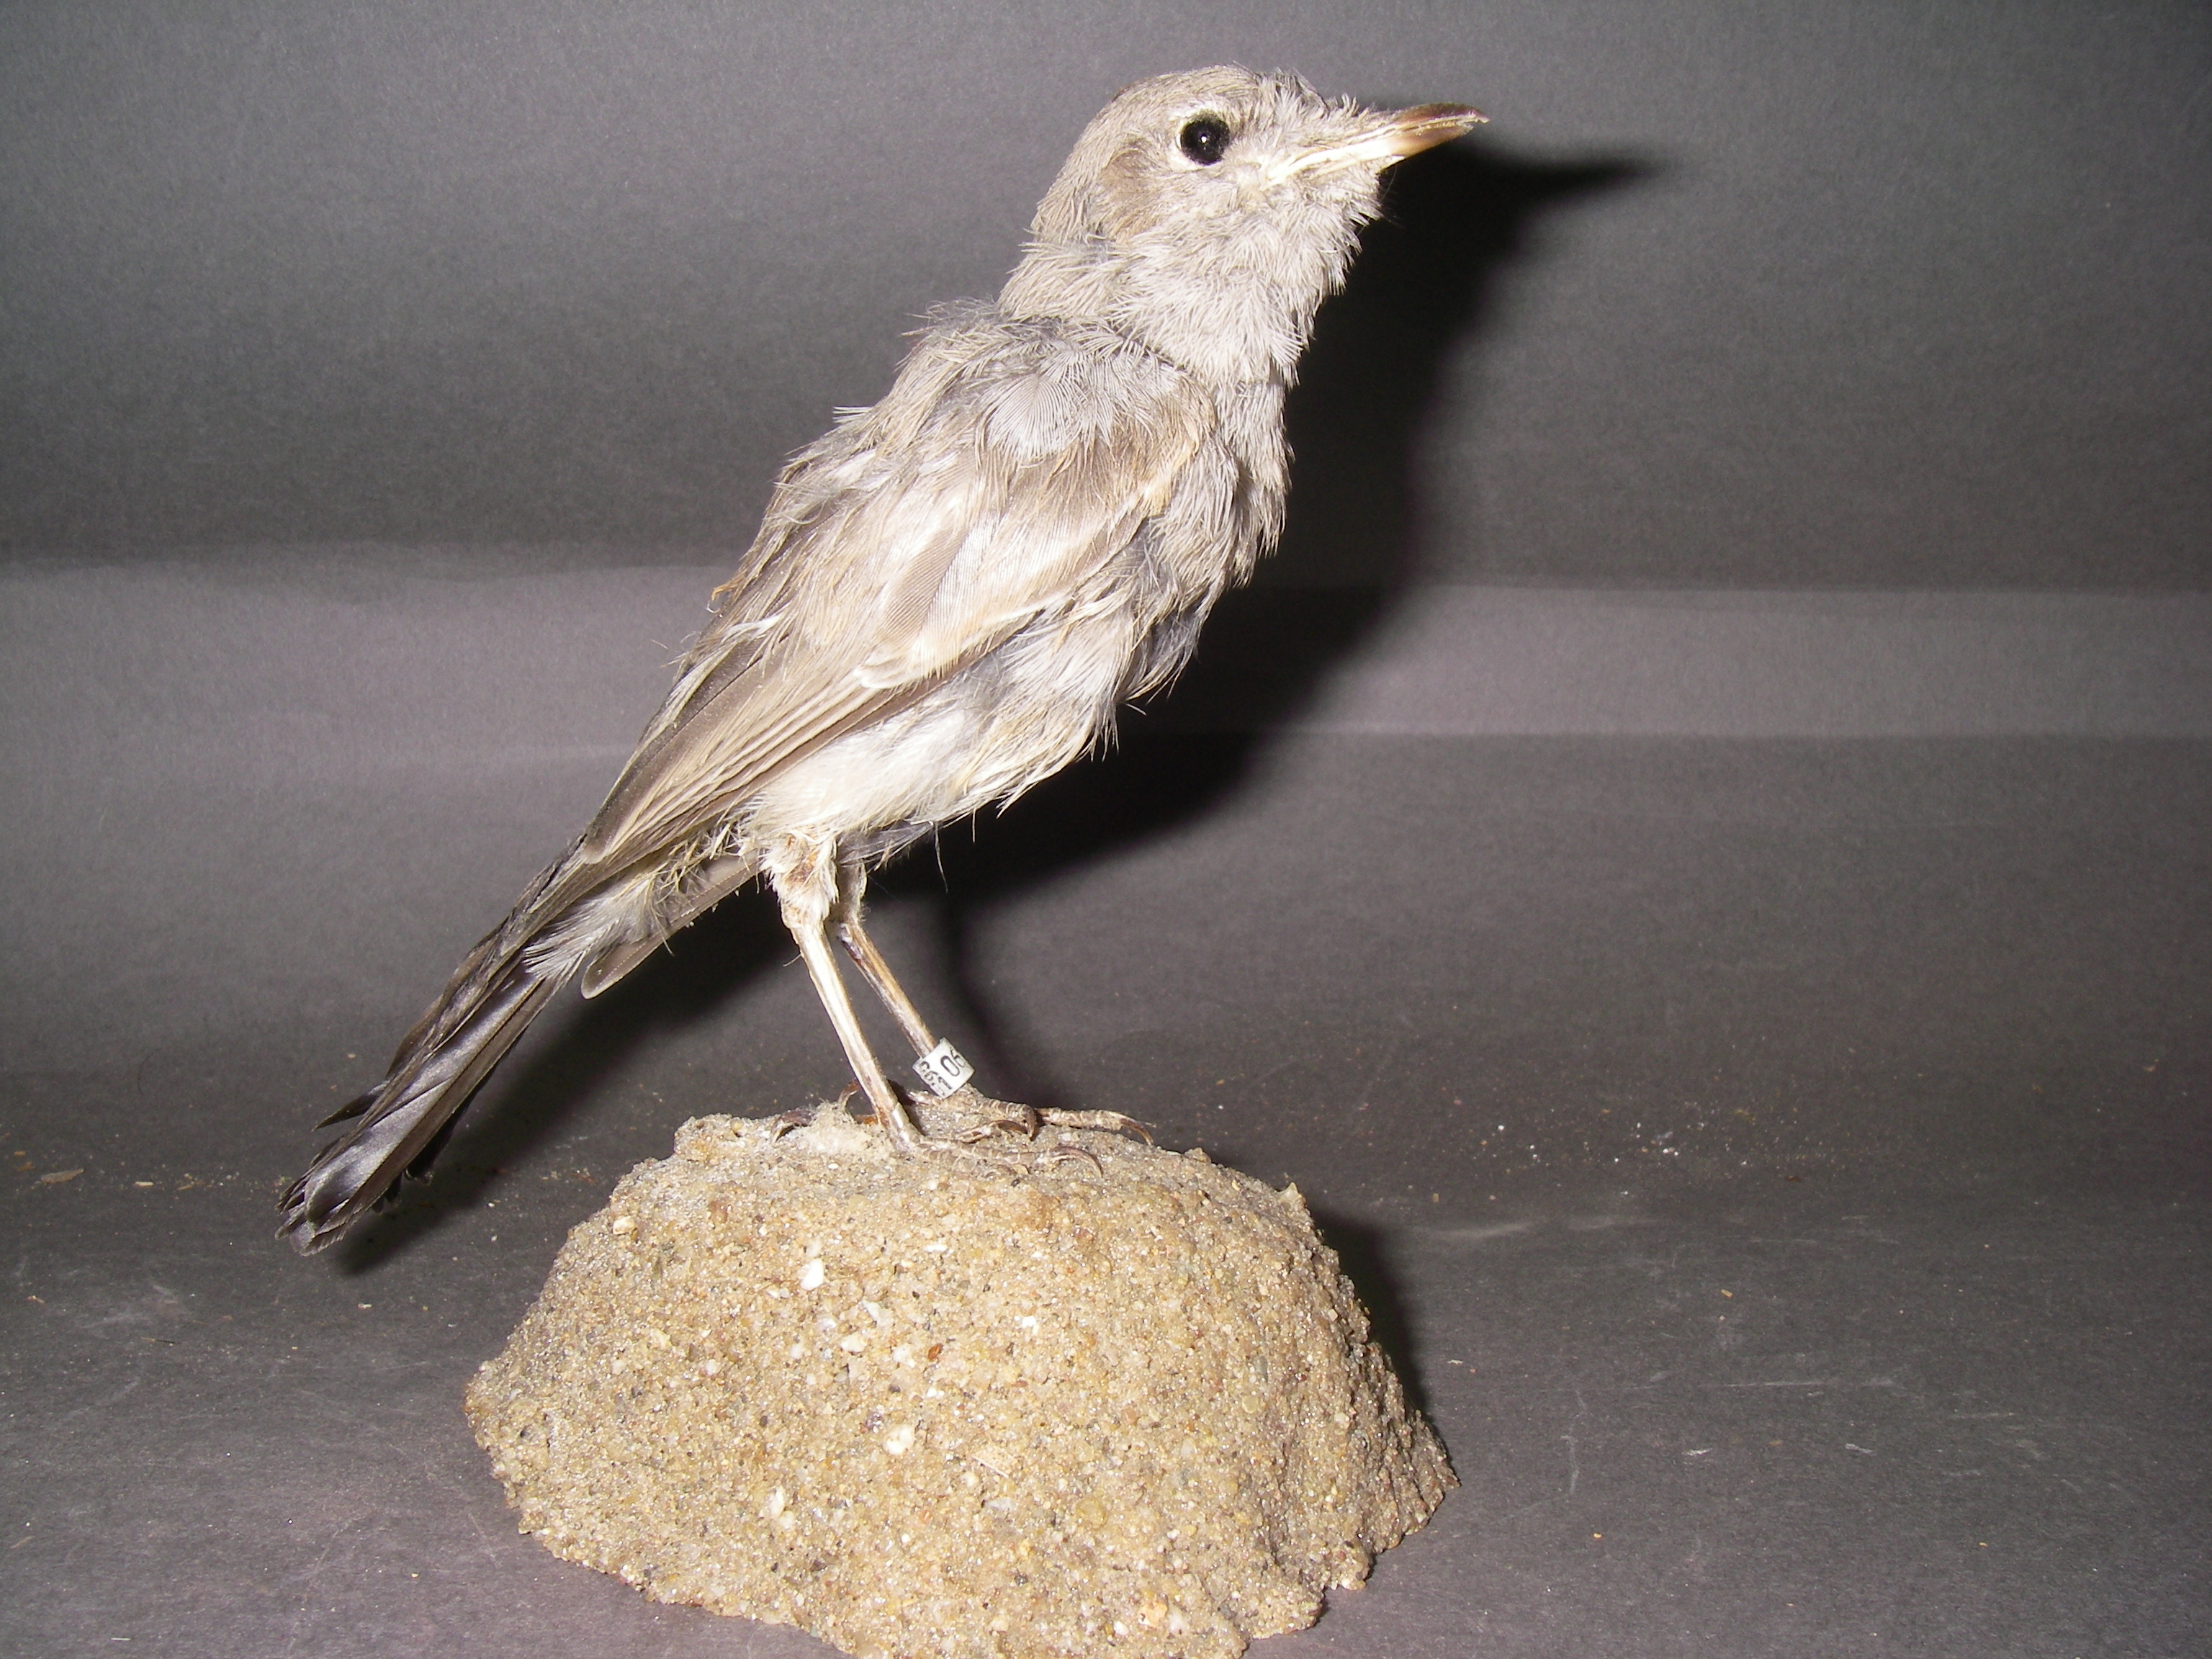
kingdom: Plantae
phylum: Tracheophyta
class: Magnoliopsida
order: Apiales
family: Apiaceae
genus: Oenanthe
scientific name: Oenanthe
